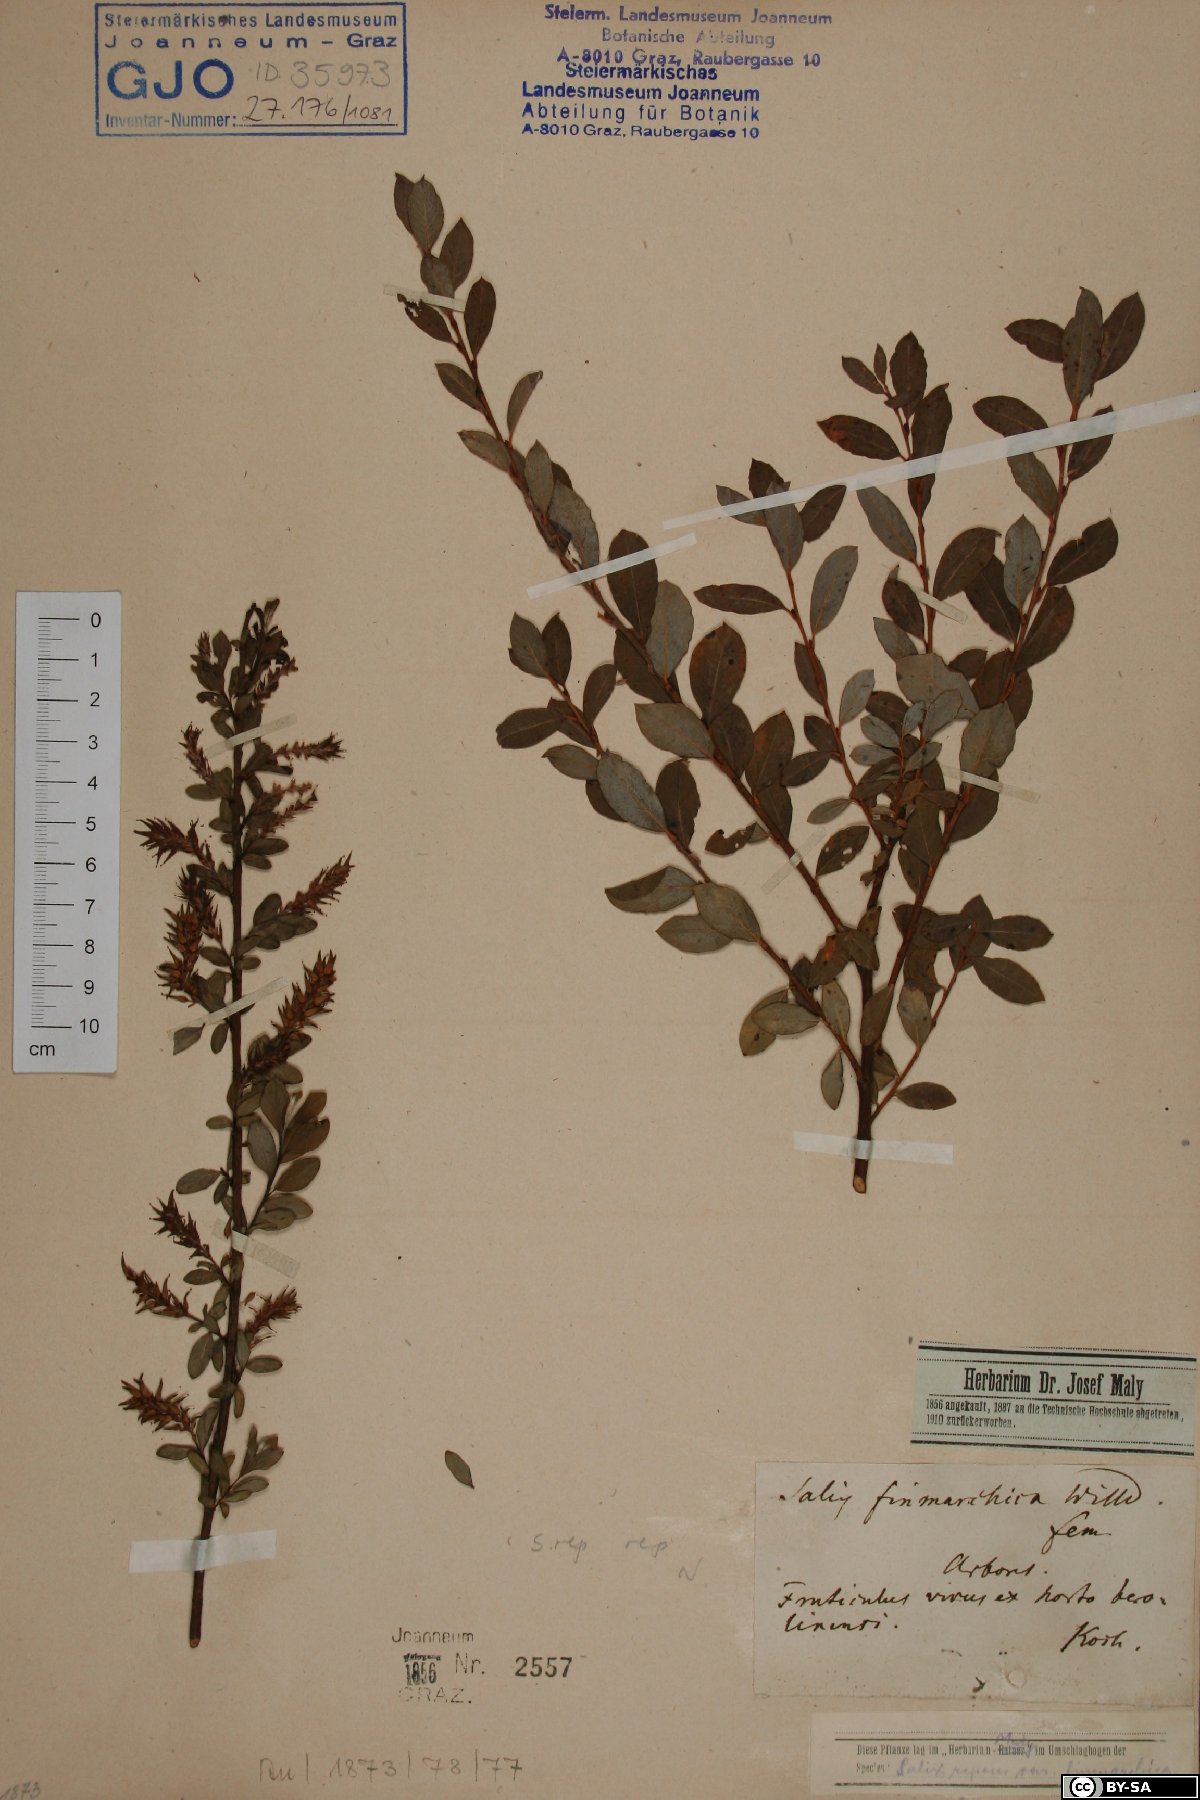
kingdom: Plantae
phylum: Tracheophyta
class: Magnoliopsida
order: Malpighiales
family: Salicaceae
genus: Salix
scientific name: Salix repens
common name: Creeping willow
